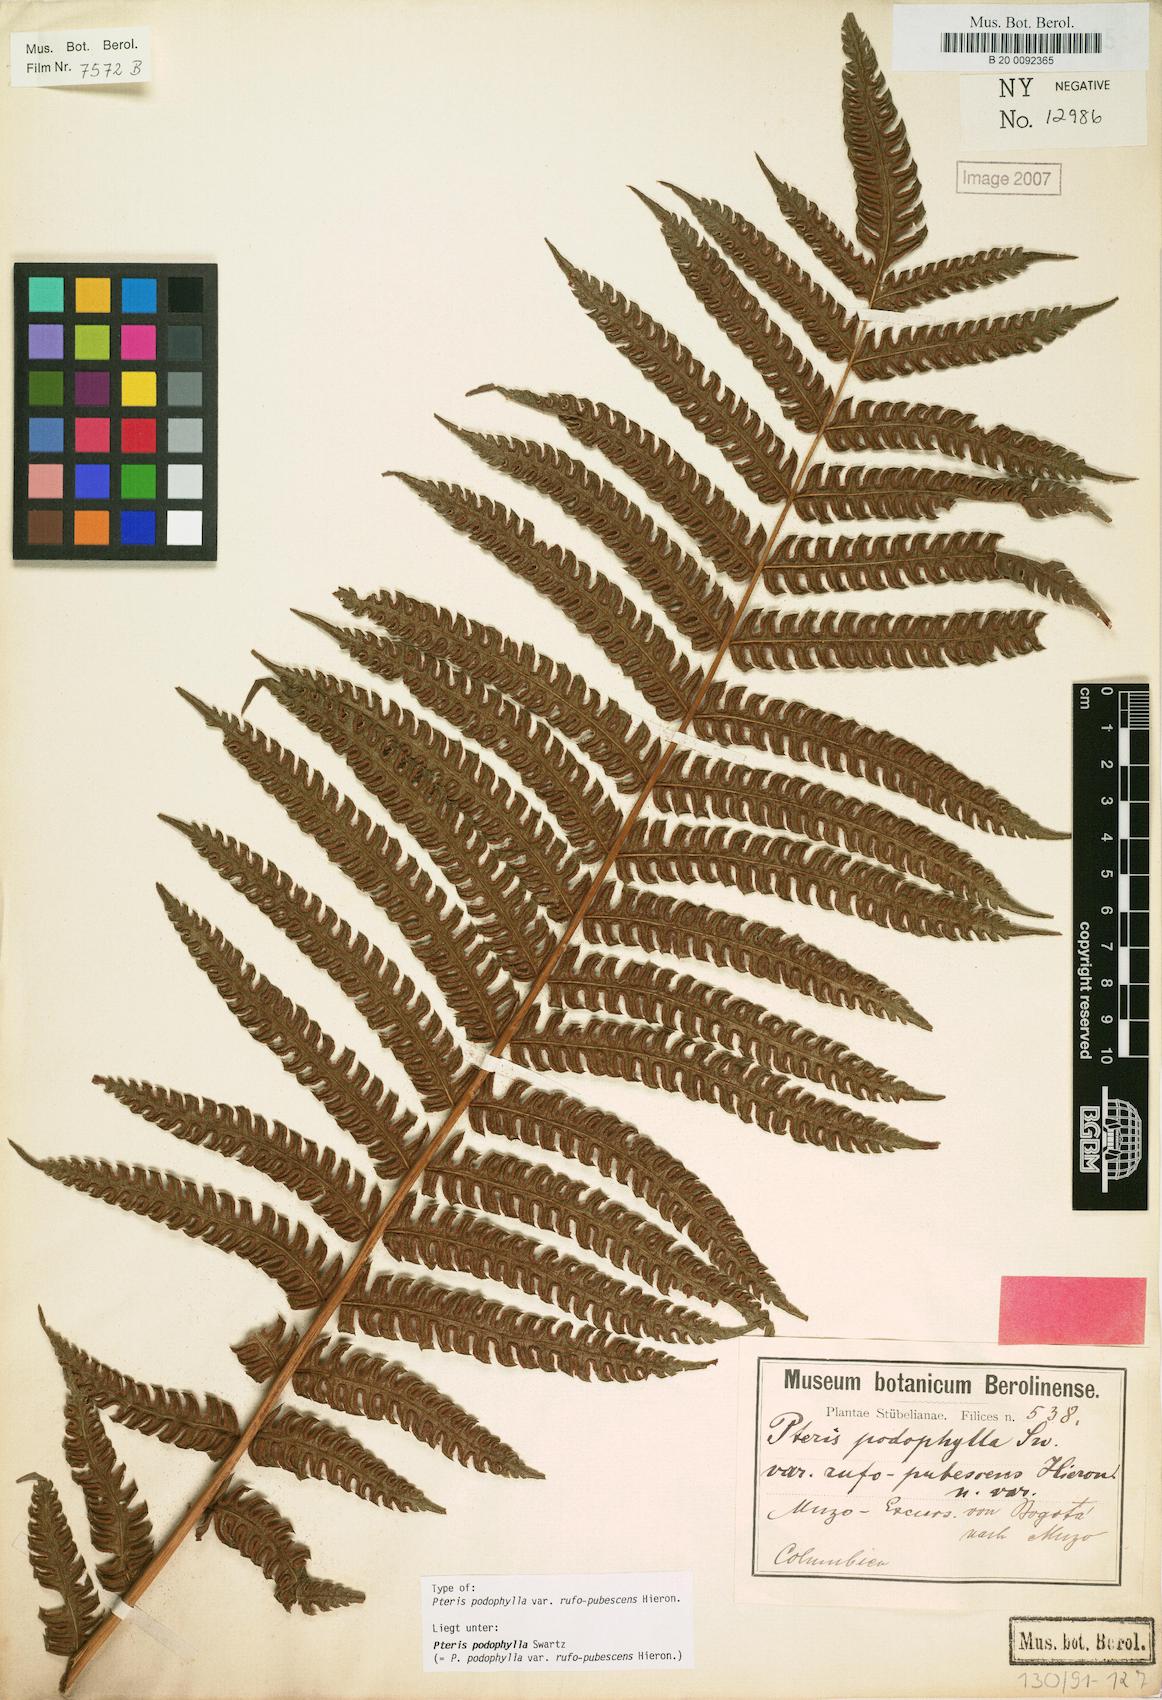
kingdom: Plantae
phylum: Tracheophyta
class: Polypodiopsida
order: Polypodiales
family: Pteridaceae
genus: Pteris
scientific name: Pteris podophylla
